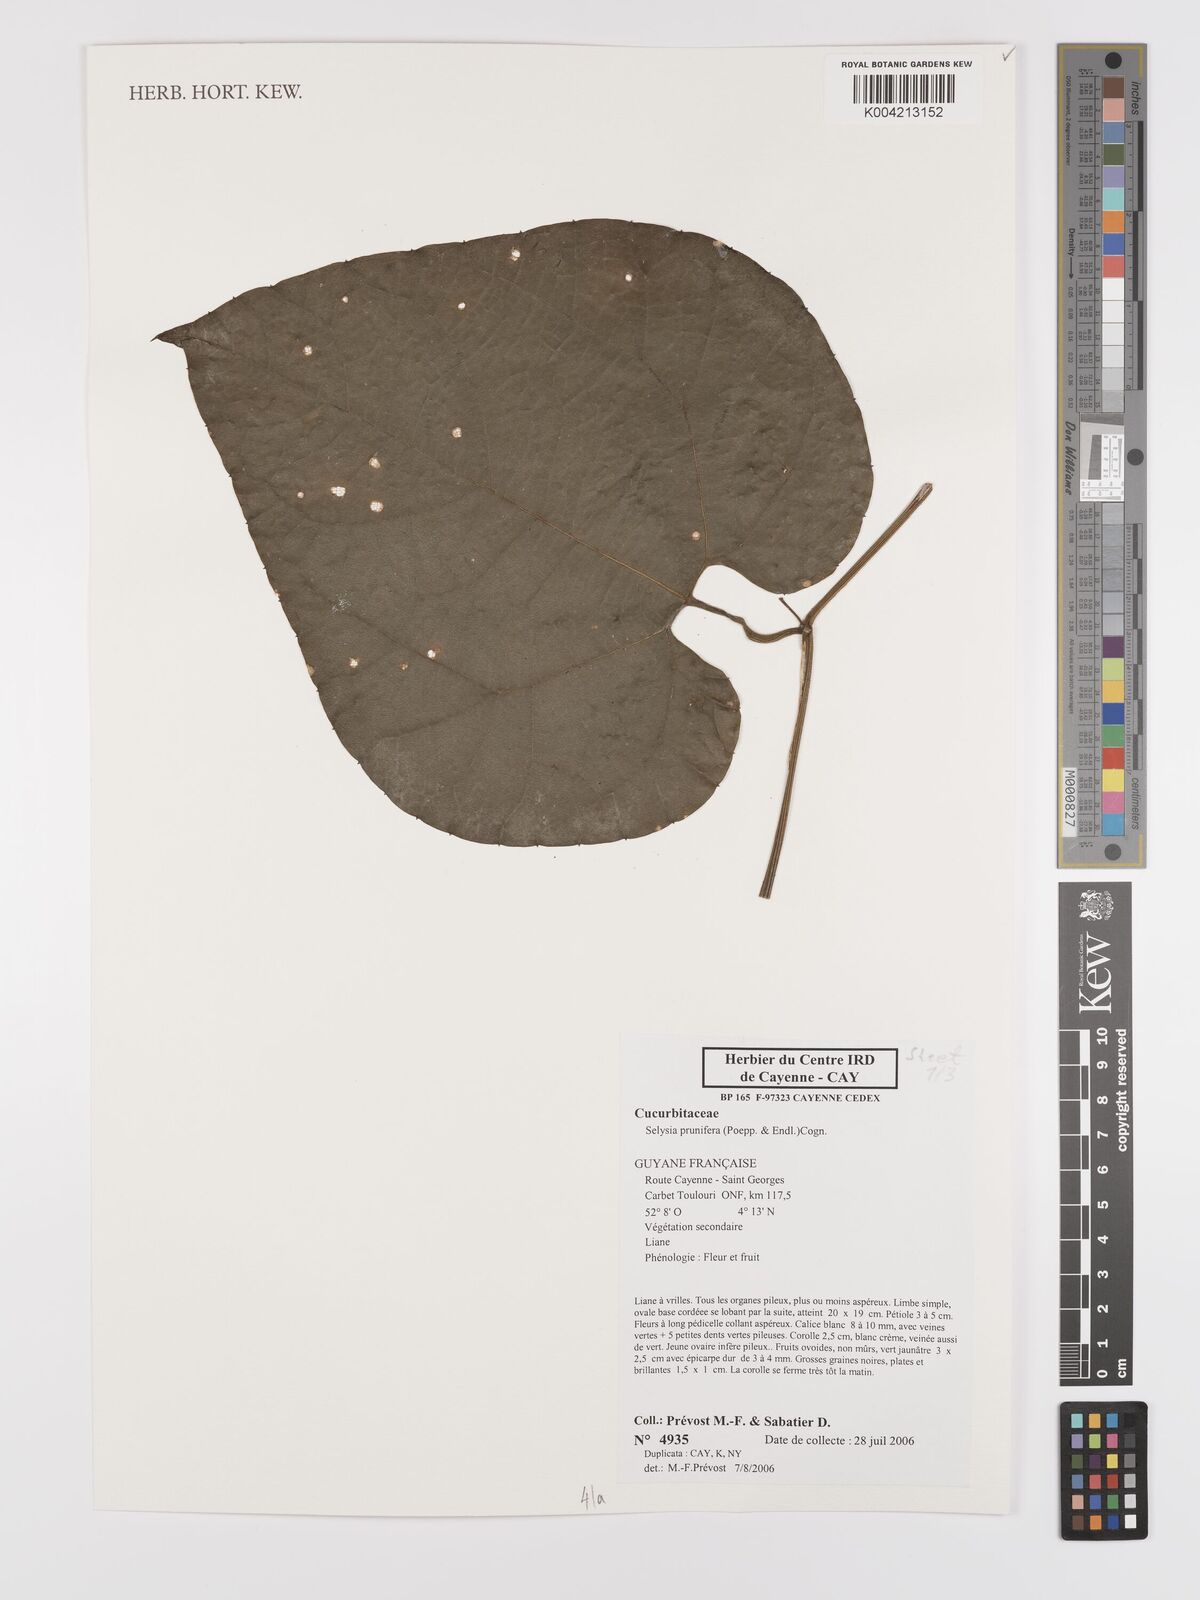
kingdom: Plantae
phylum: Tracheophyta
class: Magnoliopsida
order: Cucurbitales
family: Cucurbitaceae
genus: Cayaponia
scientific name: Cayaponia prunifera
